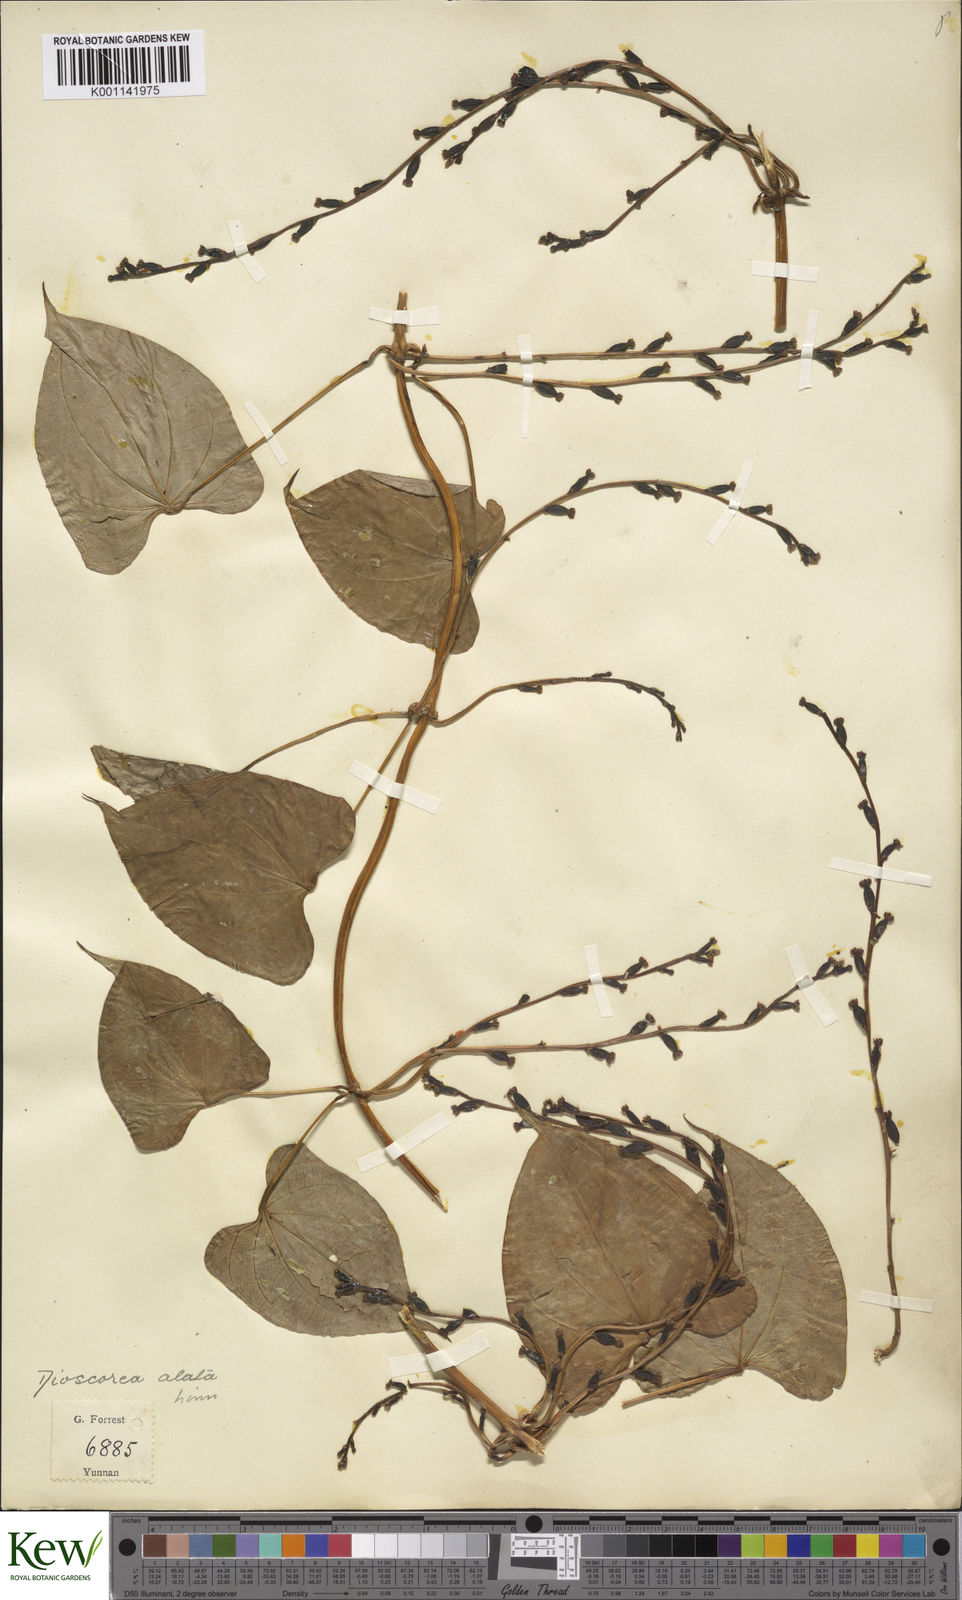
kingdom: Plantae
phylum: Tracheophyta
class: Liliopsida
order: Dioscoreales
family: Dioscoreaceae
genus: Dioscorea
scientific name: Dioscorea alata
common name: Water yam
